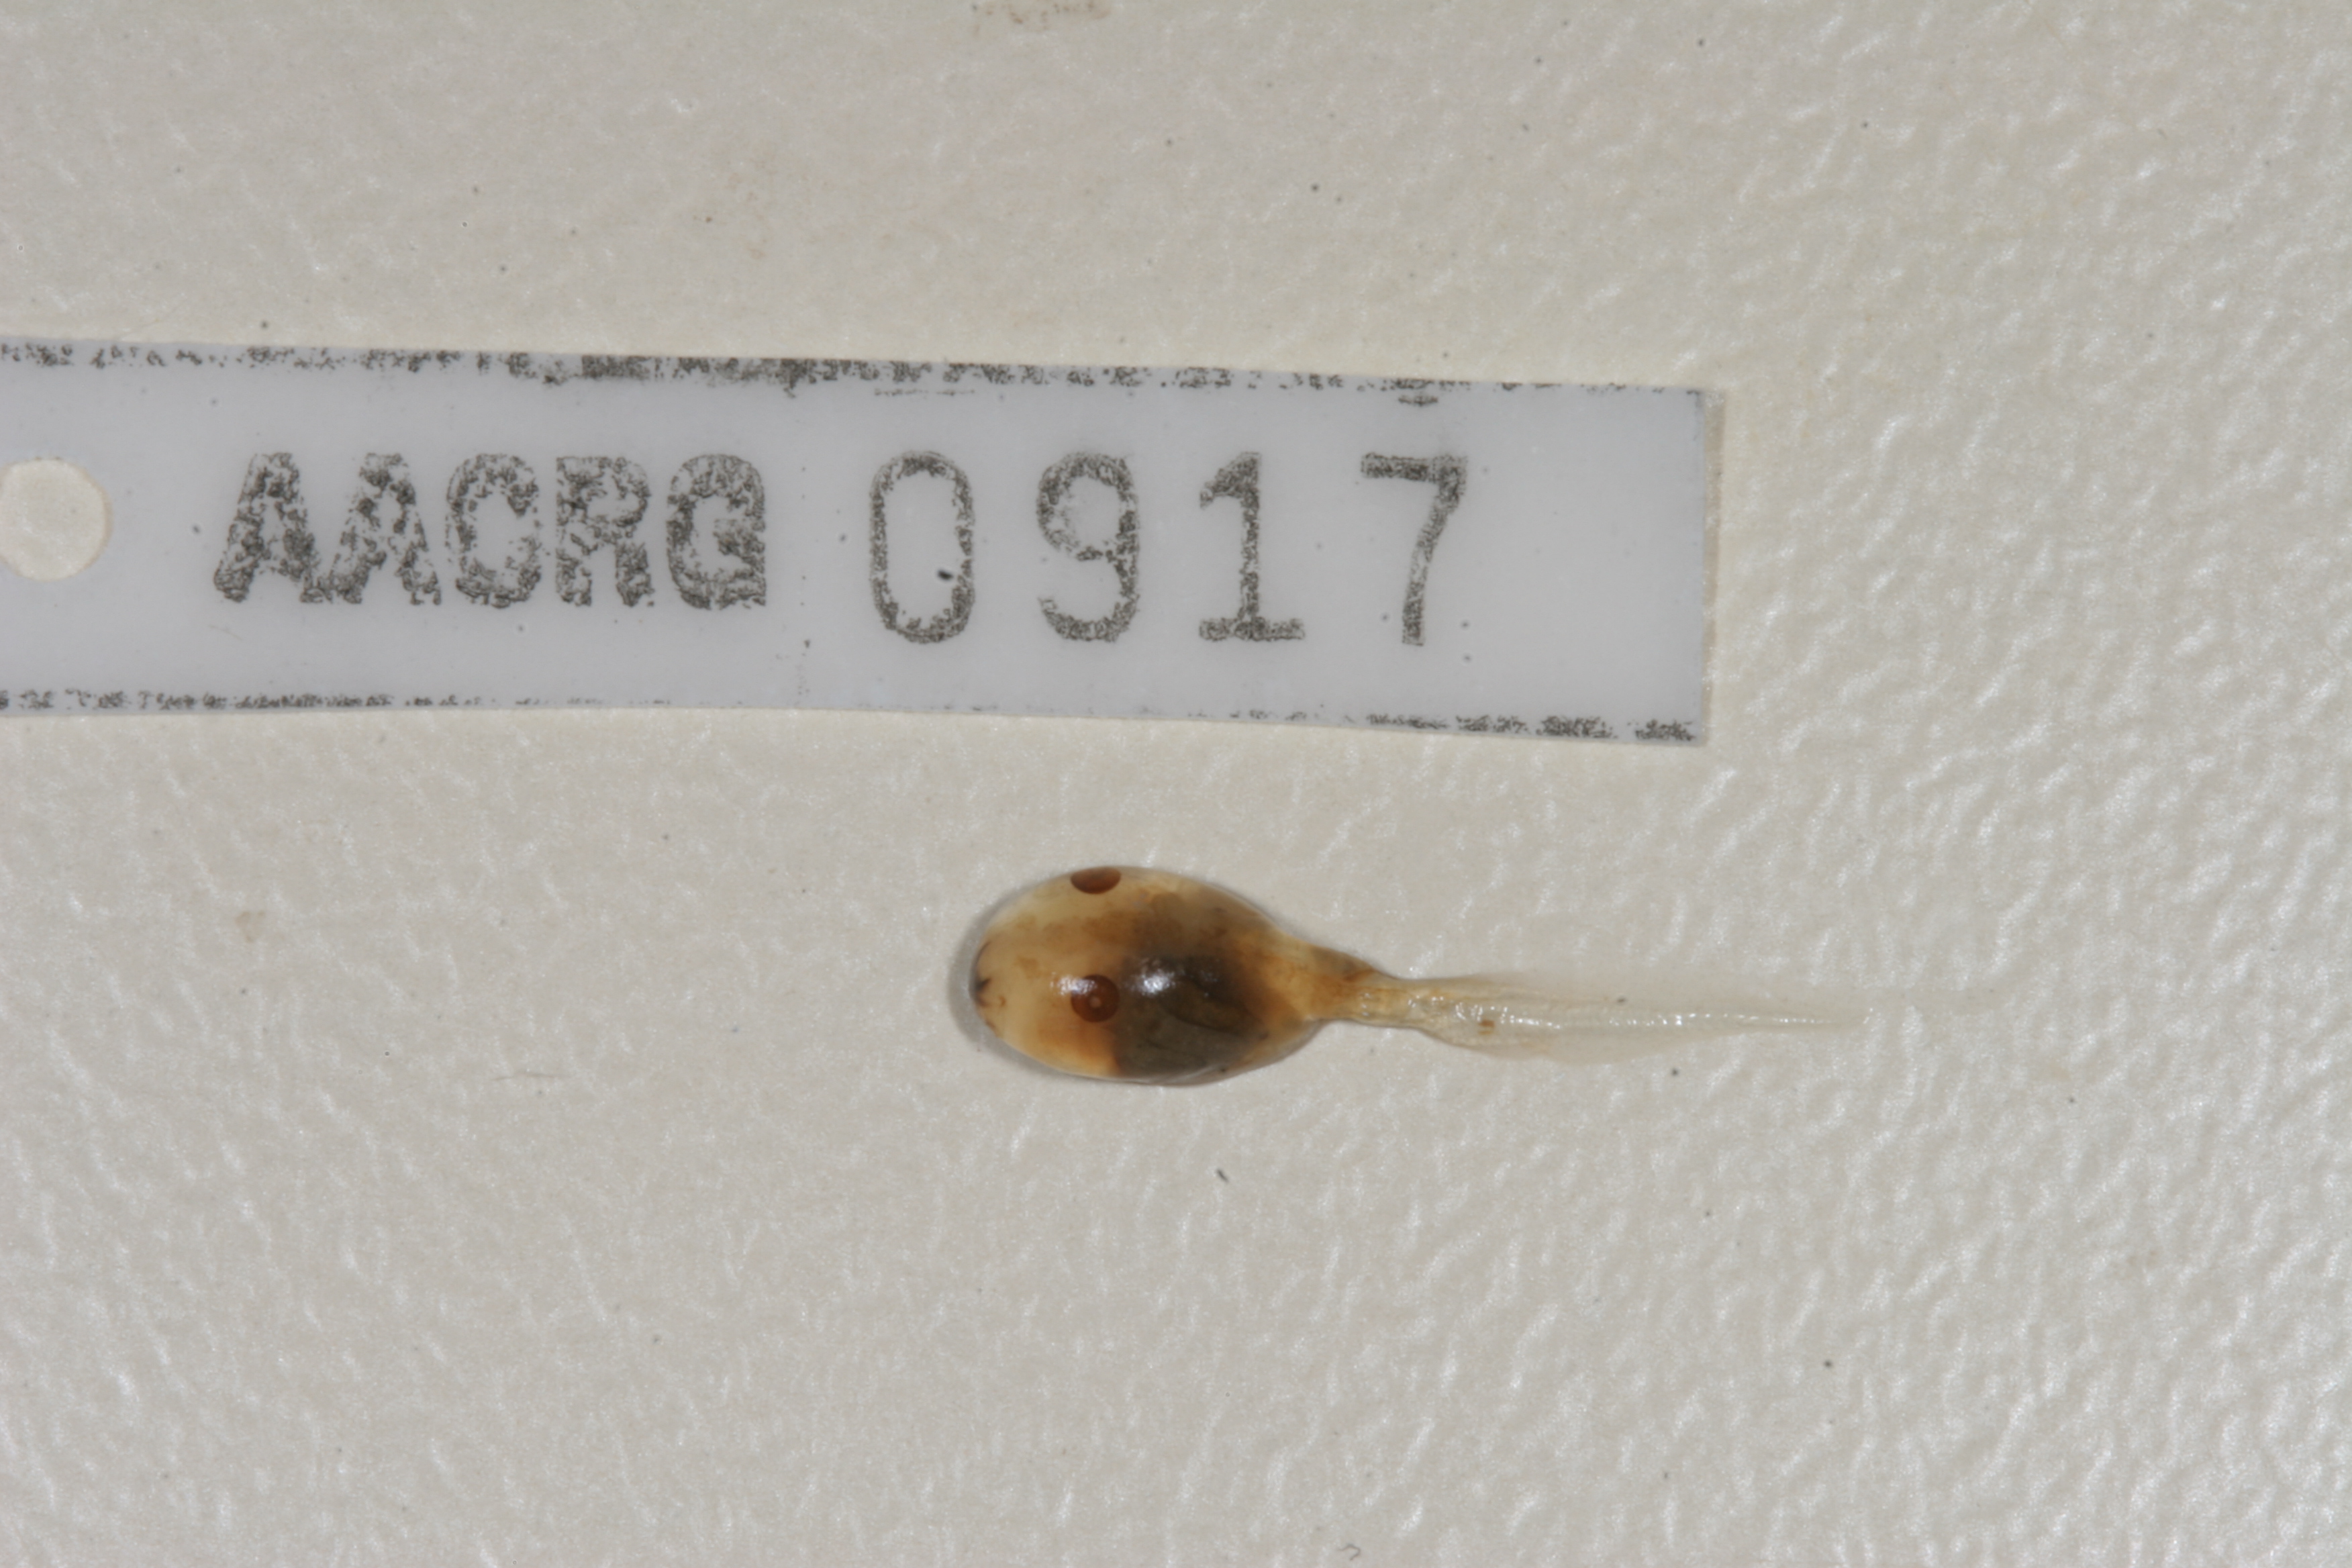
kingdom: Animalia
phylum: Chordata
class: Amphibia
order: Anura
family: Pyxicephalidae
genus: Cacosternum
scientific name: Cacosternum capense
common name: Cape dainty frog
